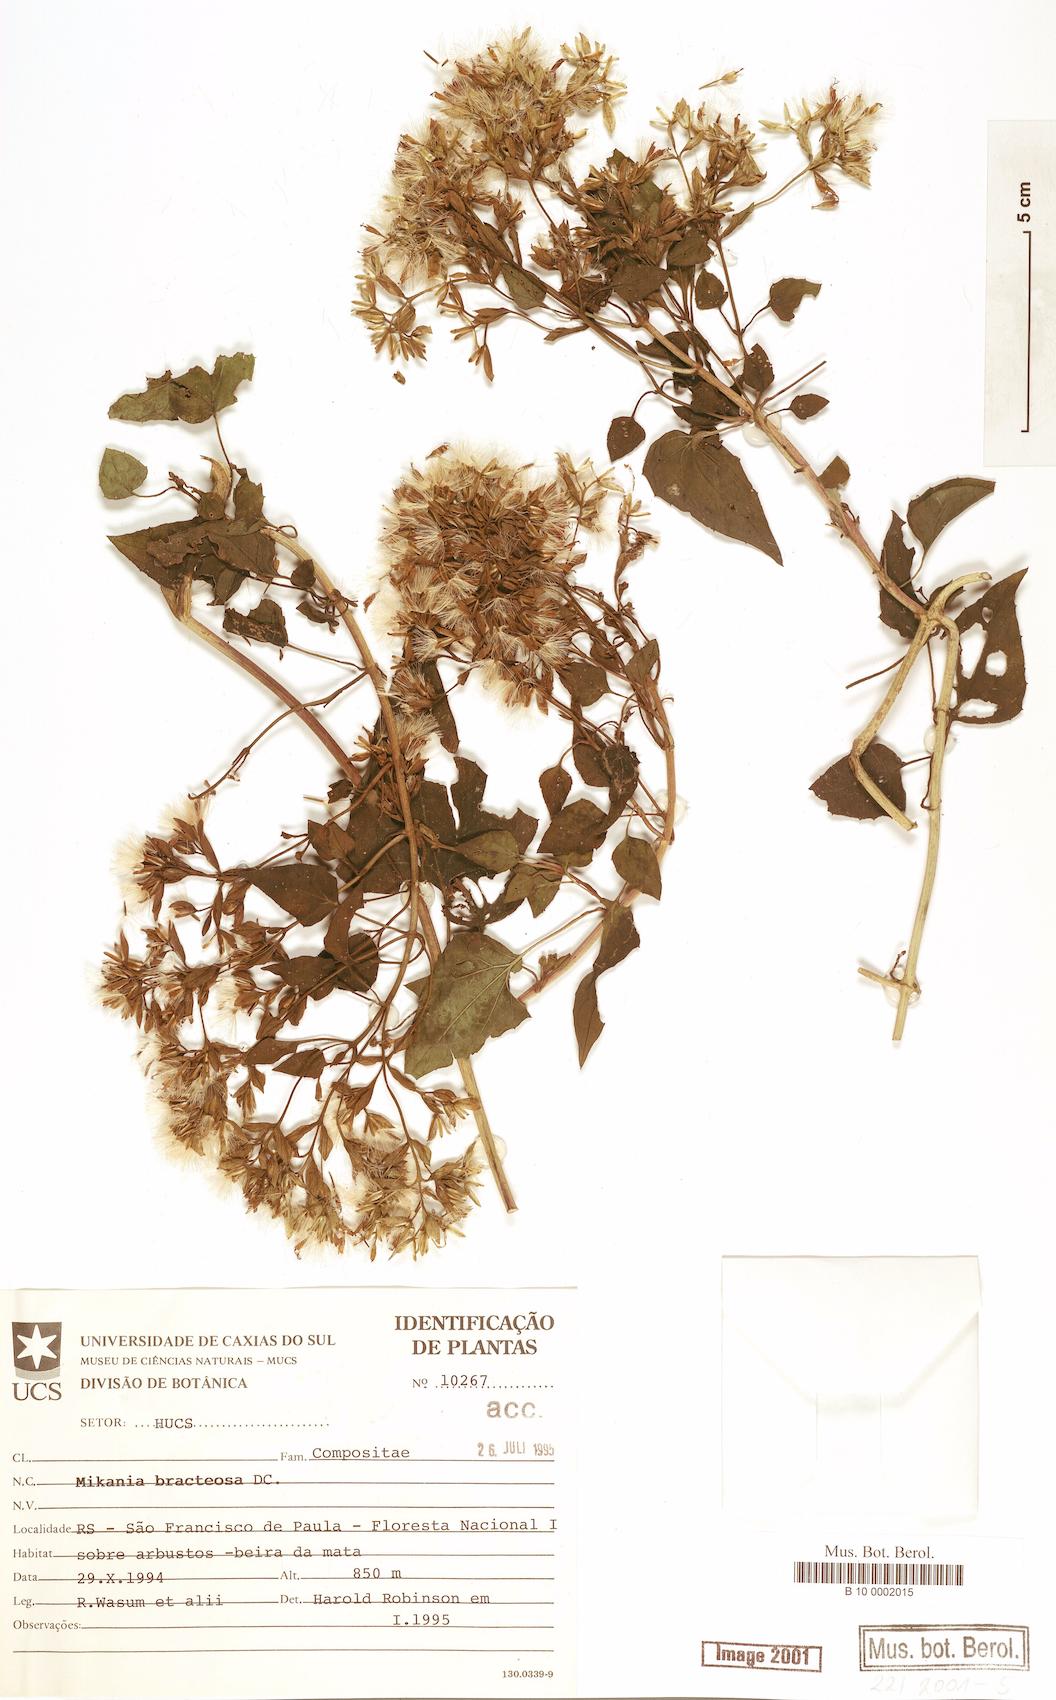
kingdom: Plantae
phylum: Tracheophyta
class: Magnoliopsida
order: Asterales
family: Asteraceae
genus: Mikania
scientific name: Mikania involucrata
